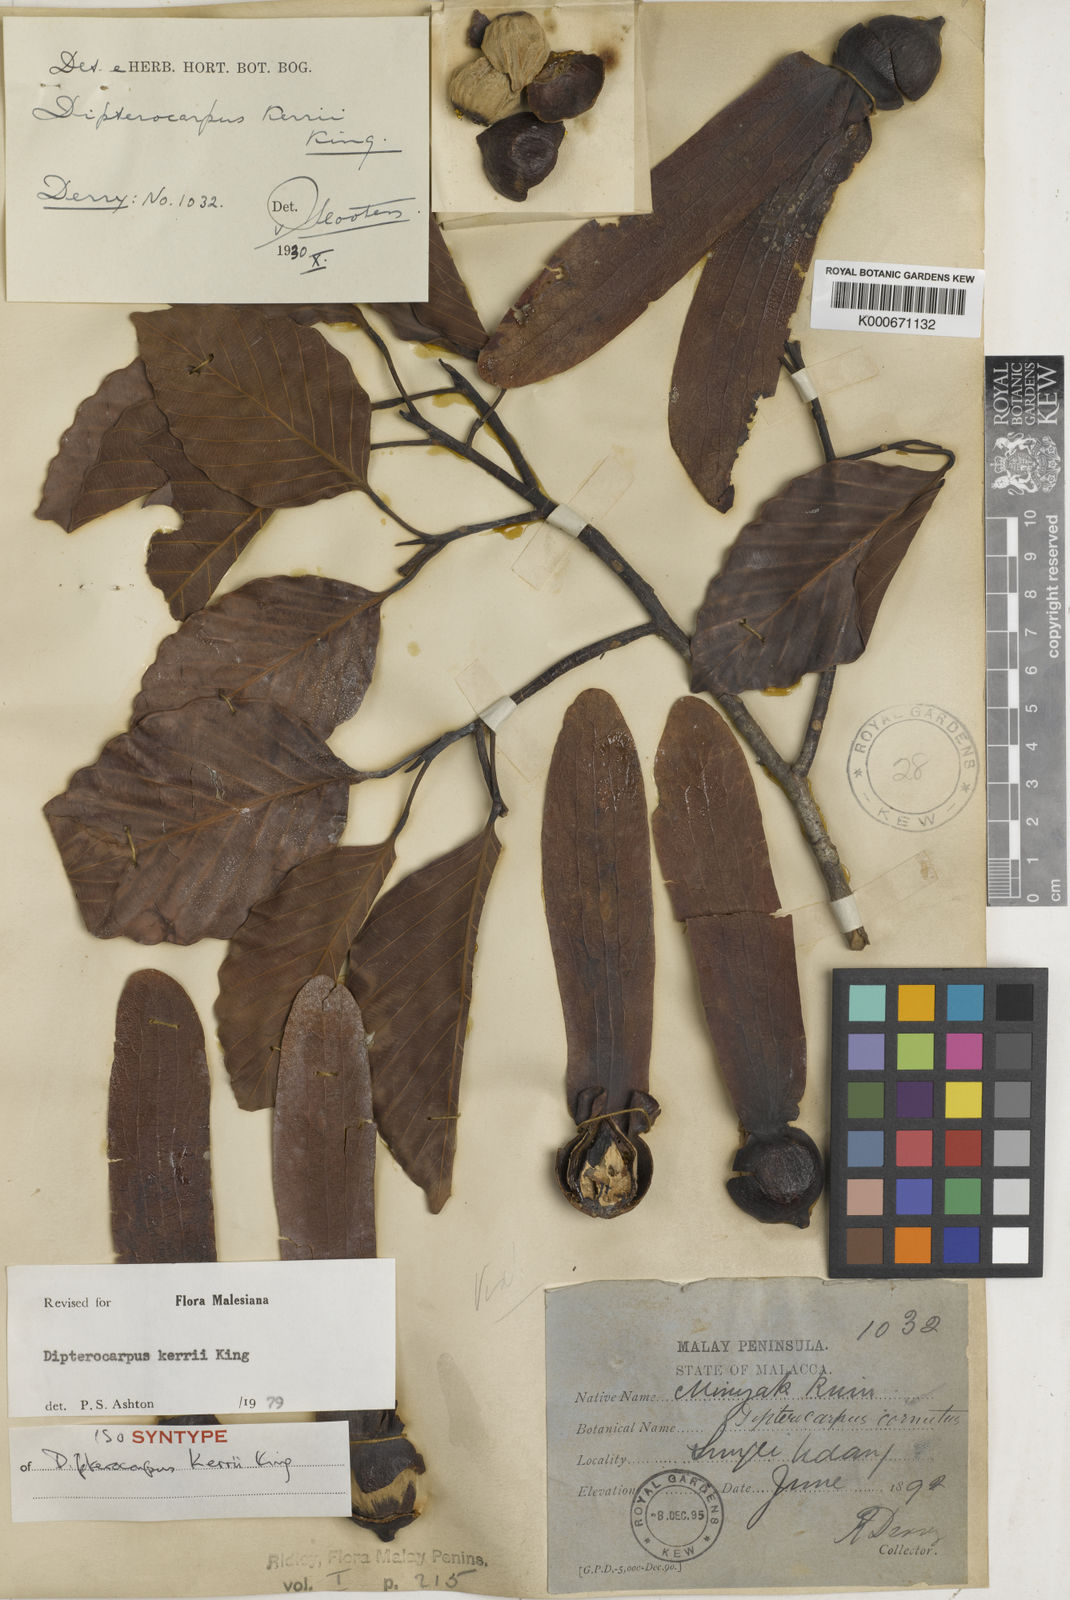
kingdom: Plantae
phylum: Tracheophyta
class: Magnoliopsida
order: Malvales
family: Dipterocarpaceae
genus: Dipterocarpus
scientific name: Dipterocarpus kerrii
